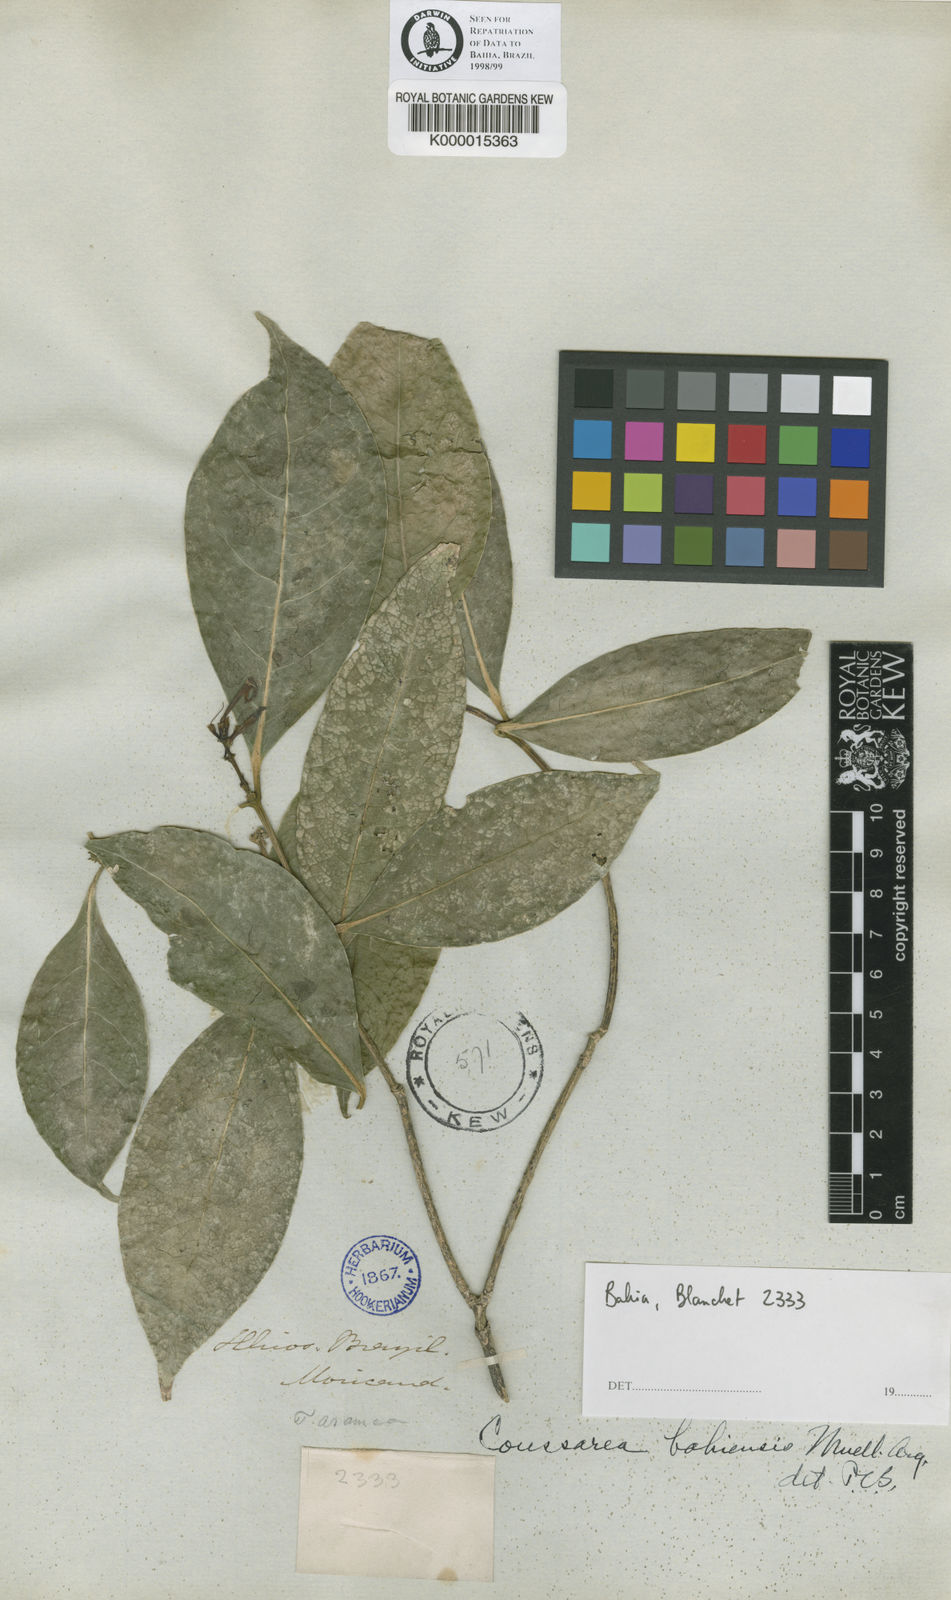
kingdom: Plantae
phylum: Tracheophyta
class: Magnoliopsida
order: Gentianales
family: Rubiaceae
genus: Coussarea
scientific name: Coussarea
